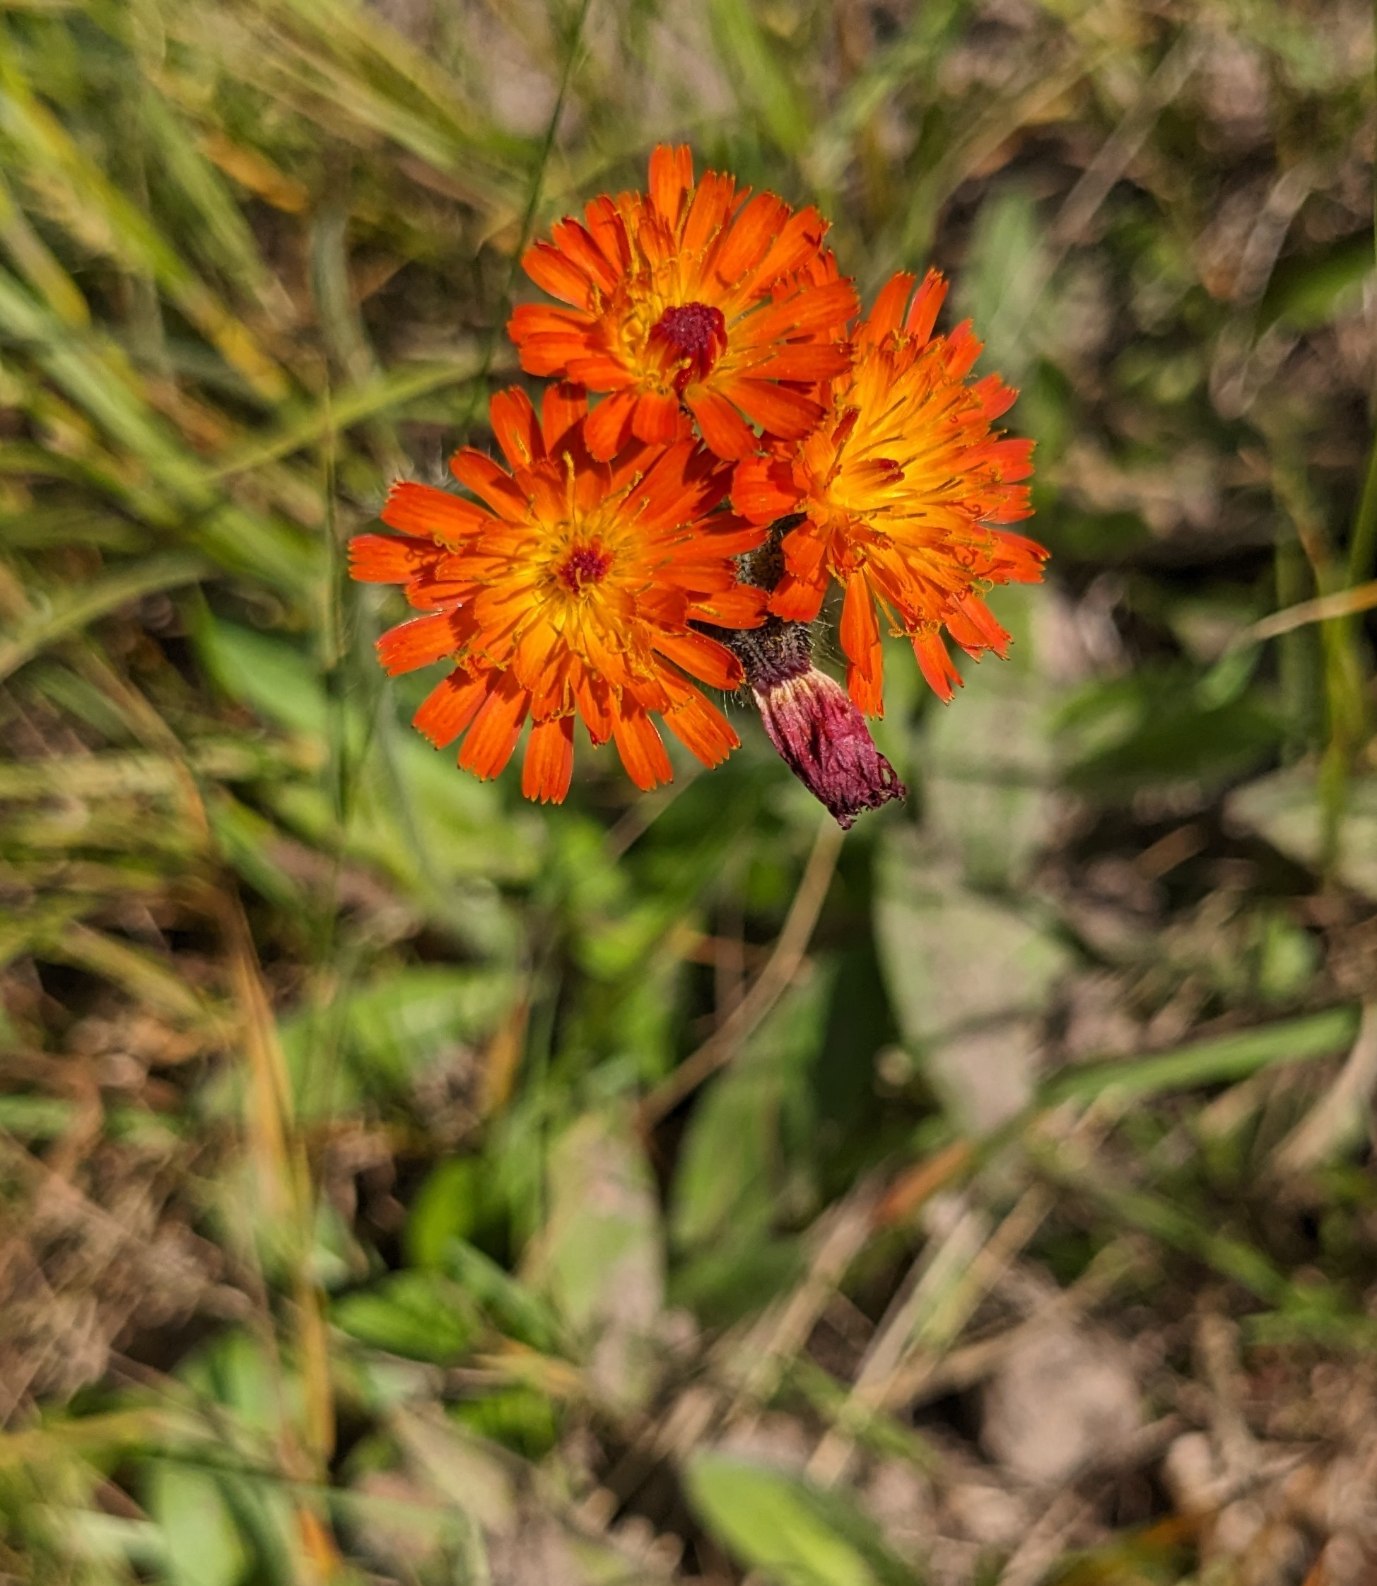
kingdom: Plantae
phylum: Tracheophyta
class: Magnoliopsida
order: Asterales
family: Asteraceae
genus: Pilosella
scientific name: Pilosella aurantiaca
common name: Pomerans-høgeurt
